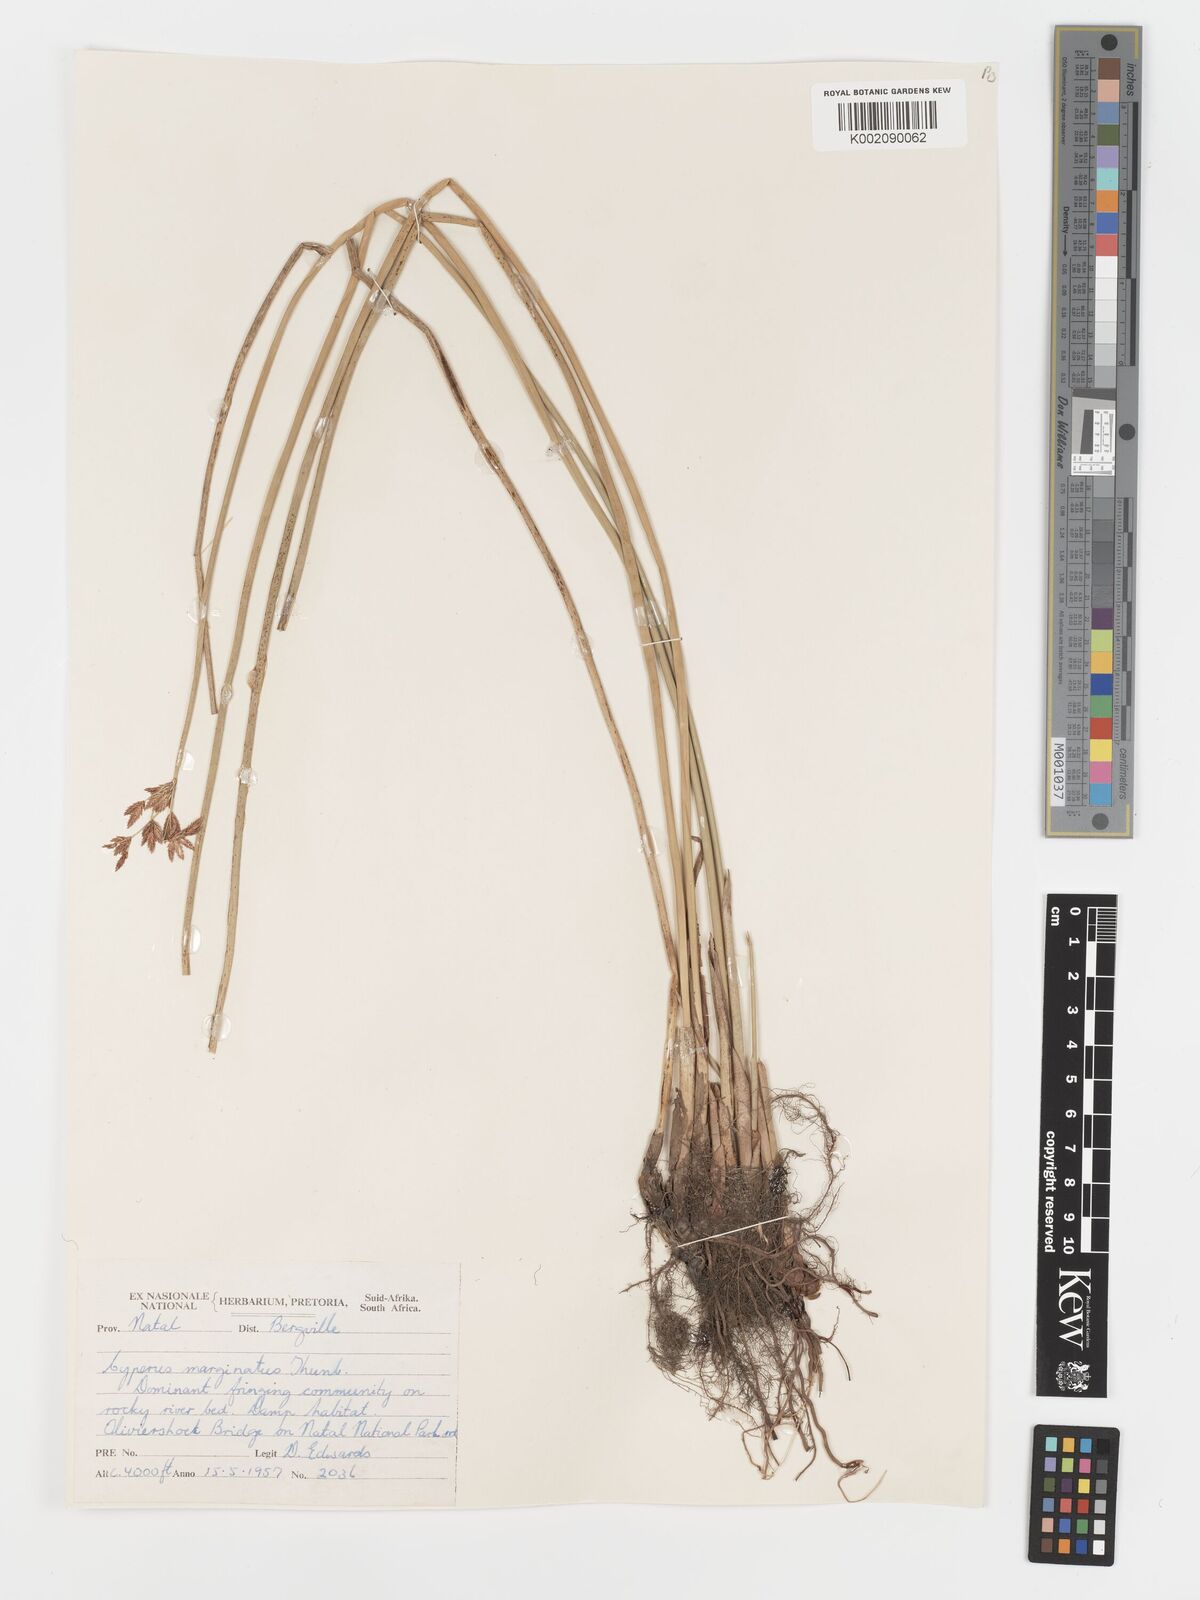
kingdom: Plantae
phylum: Tracheophyta
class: Liliopsida
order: Poales
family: Cyperaceae
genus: Cyperus
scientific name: Cyperus marginatus
